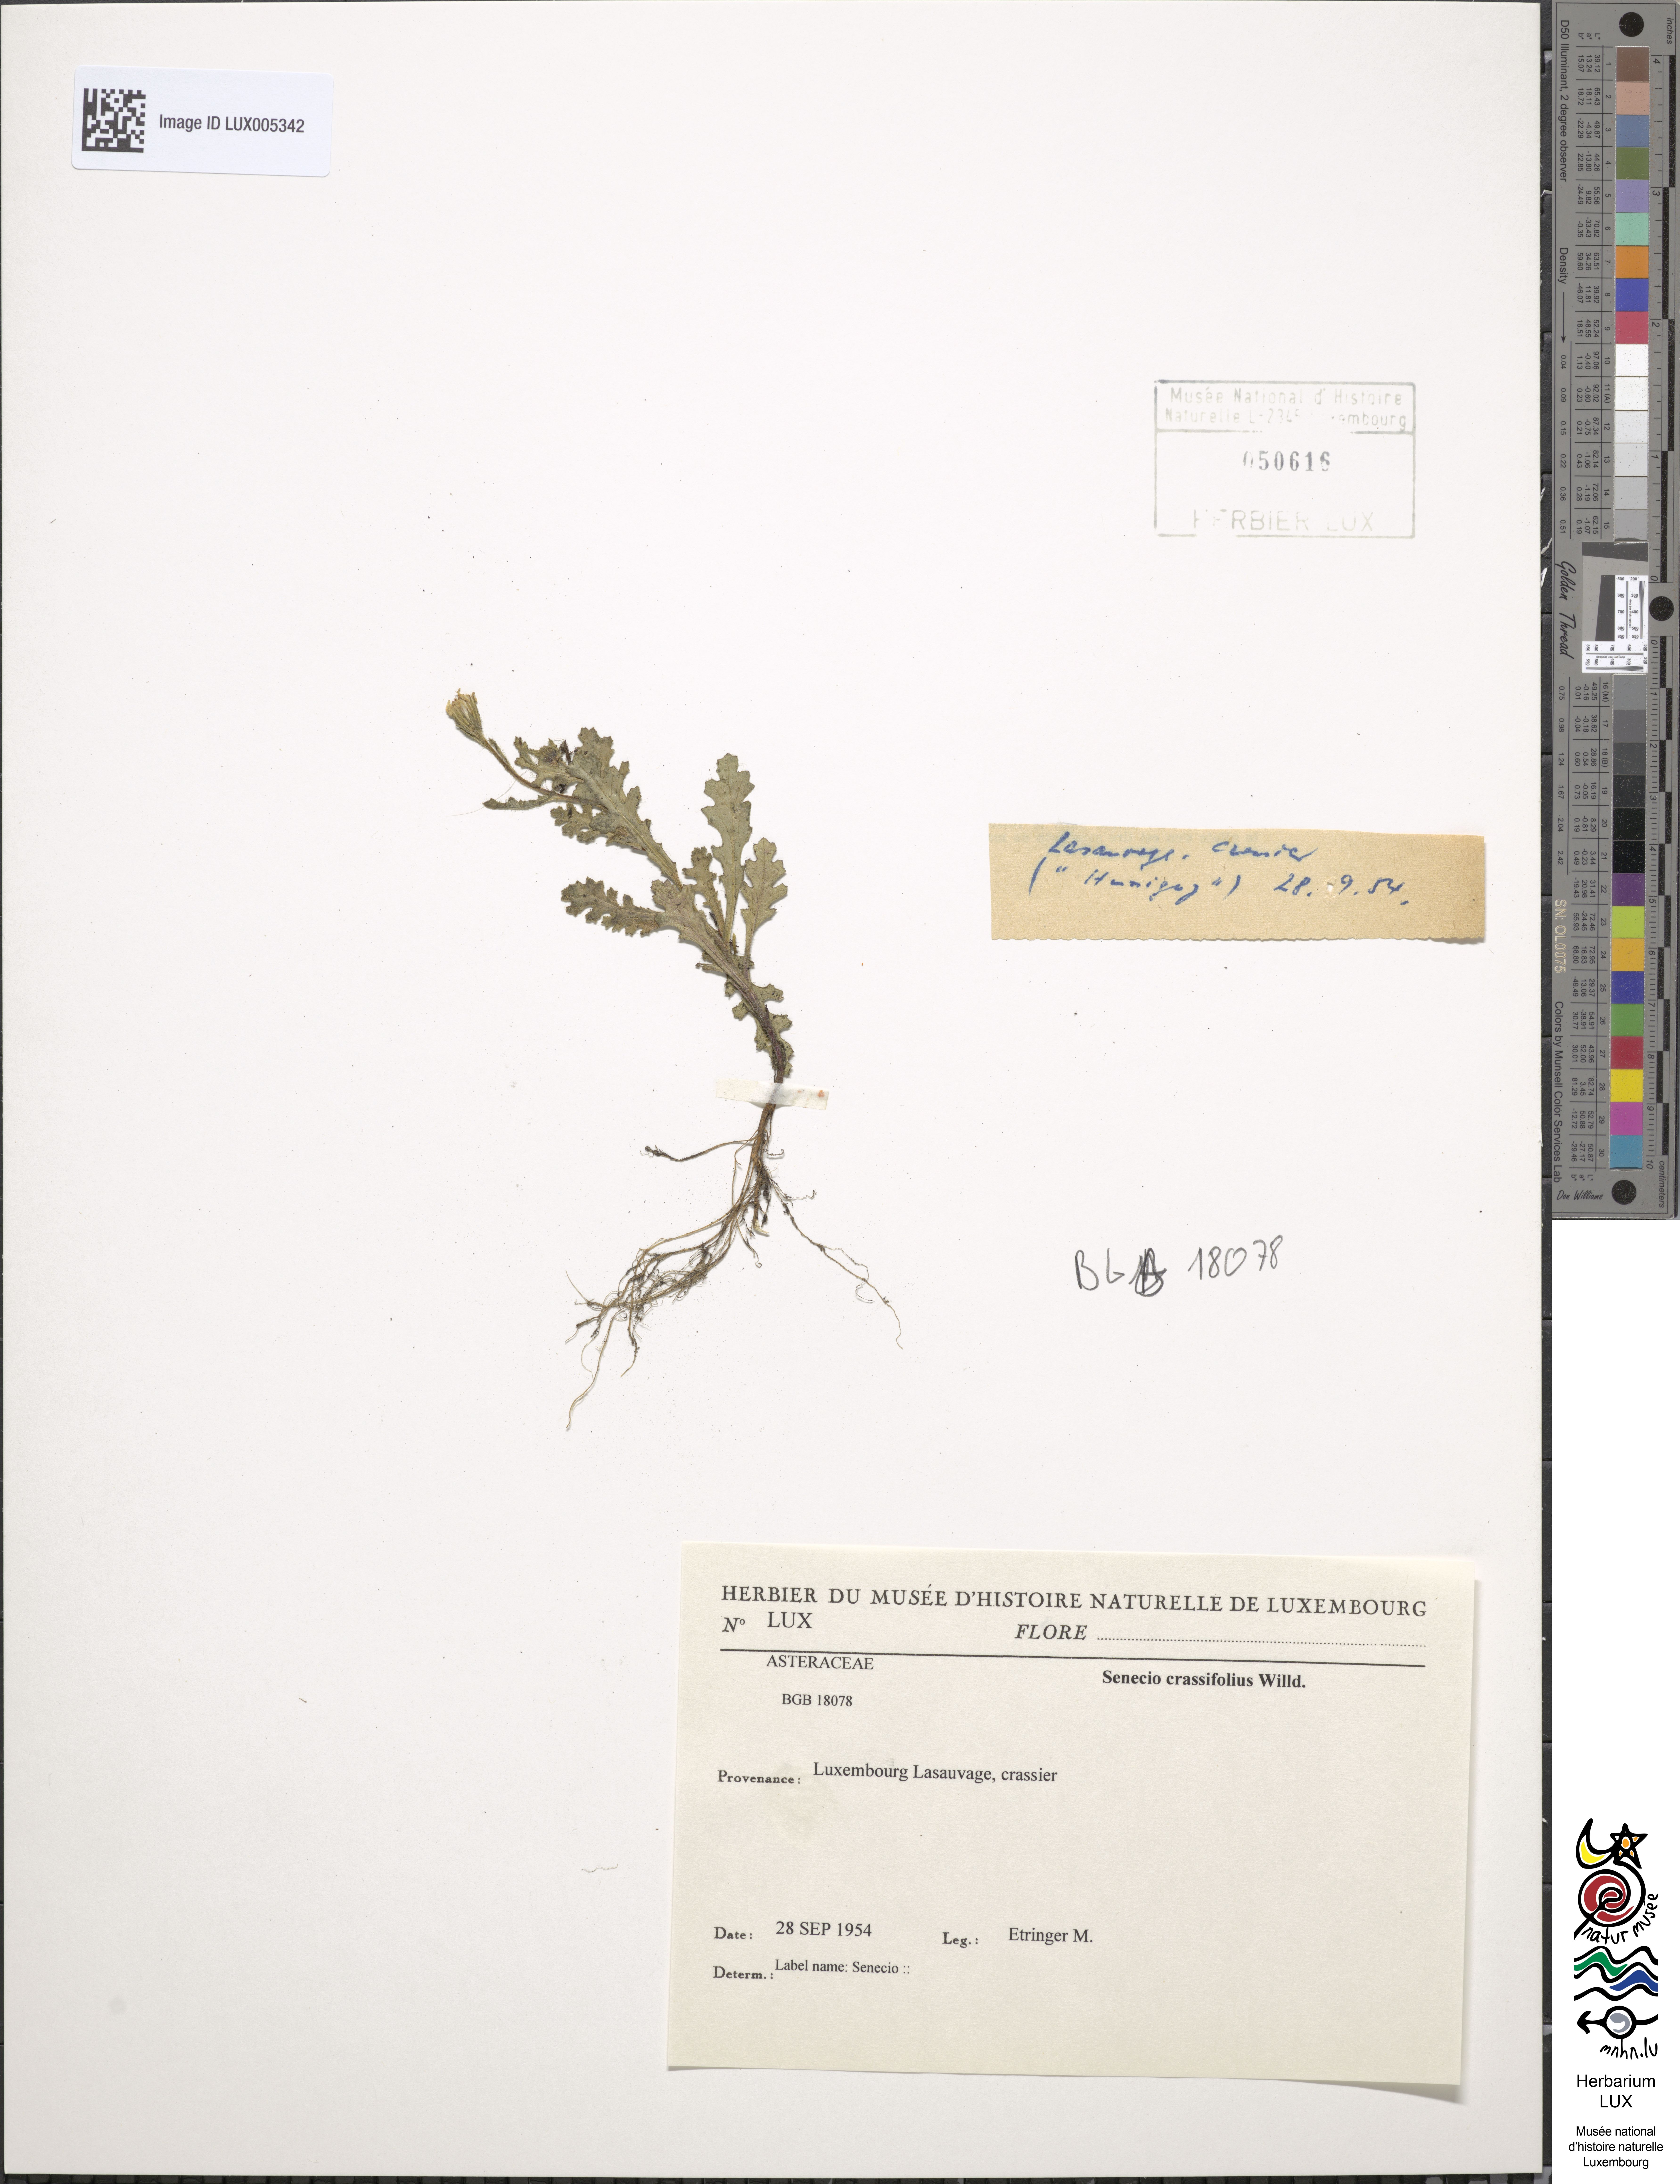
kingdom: Plantae
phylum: Tracheophyta
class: Magnoliopsida
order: Asterales
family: Asteraceae
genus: Senecio
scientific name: Senecio leucanthemifolius
